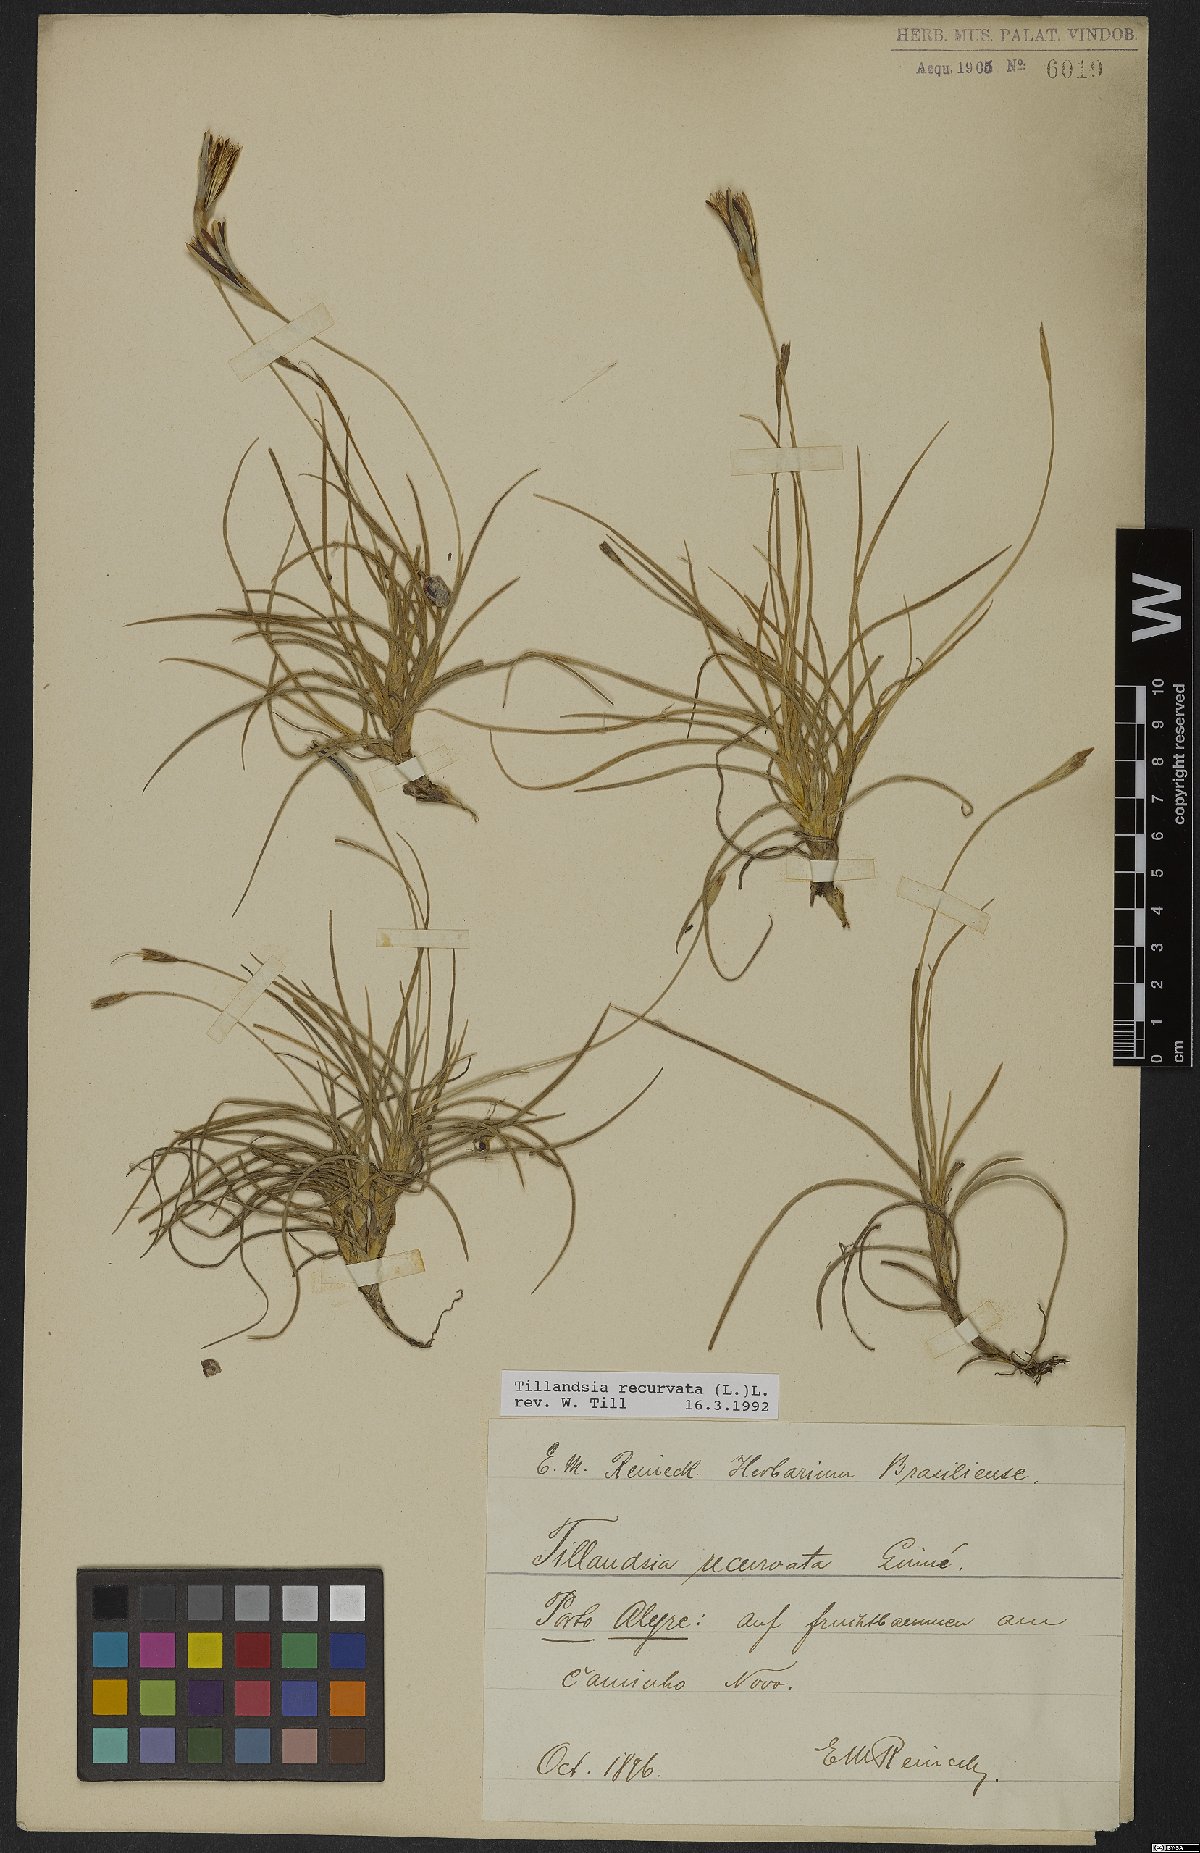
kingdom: Plantae
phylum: Tracheophyta
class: Liliopsida
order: Poales
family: Bromeliaceae
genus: Tillandsia
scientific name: Tillandsia recurvata
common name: Small ballmoss
